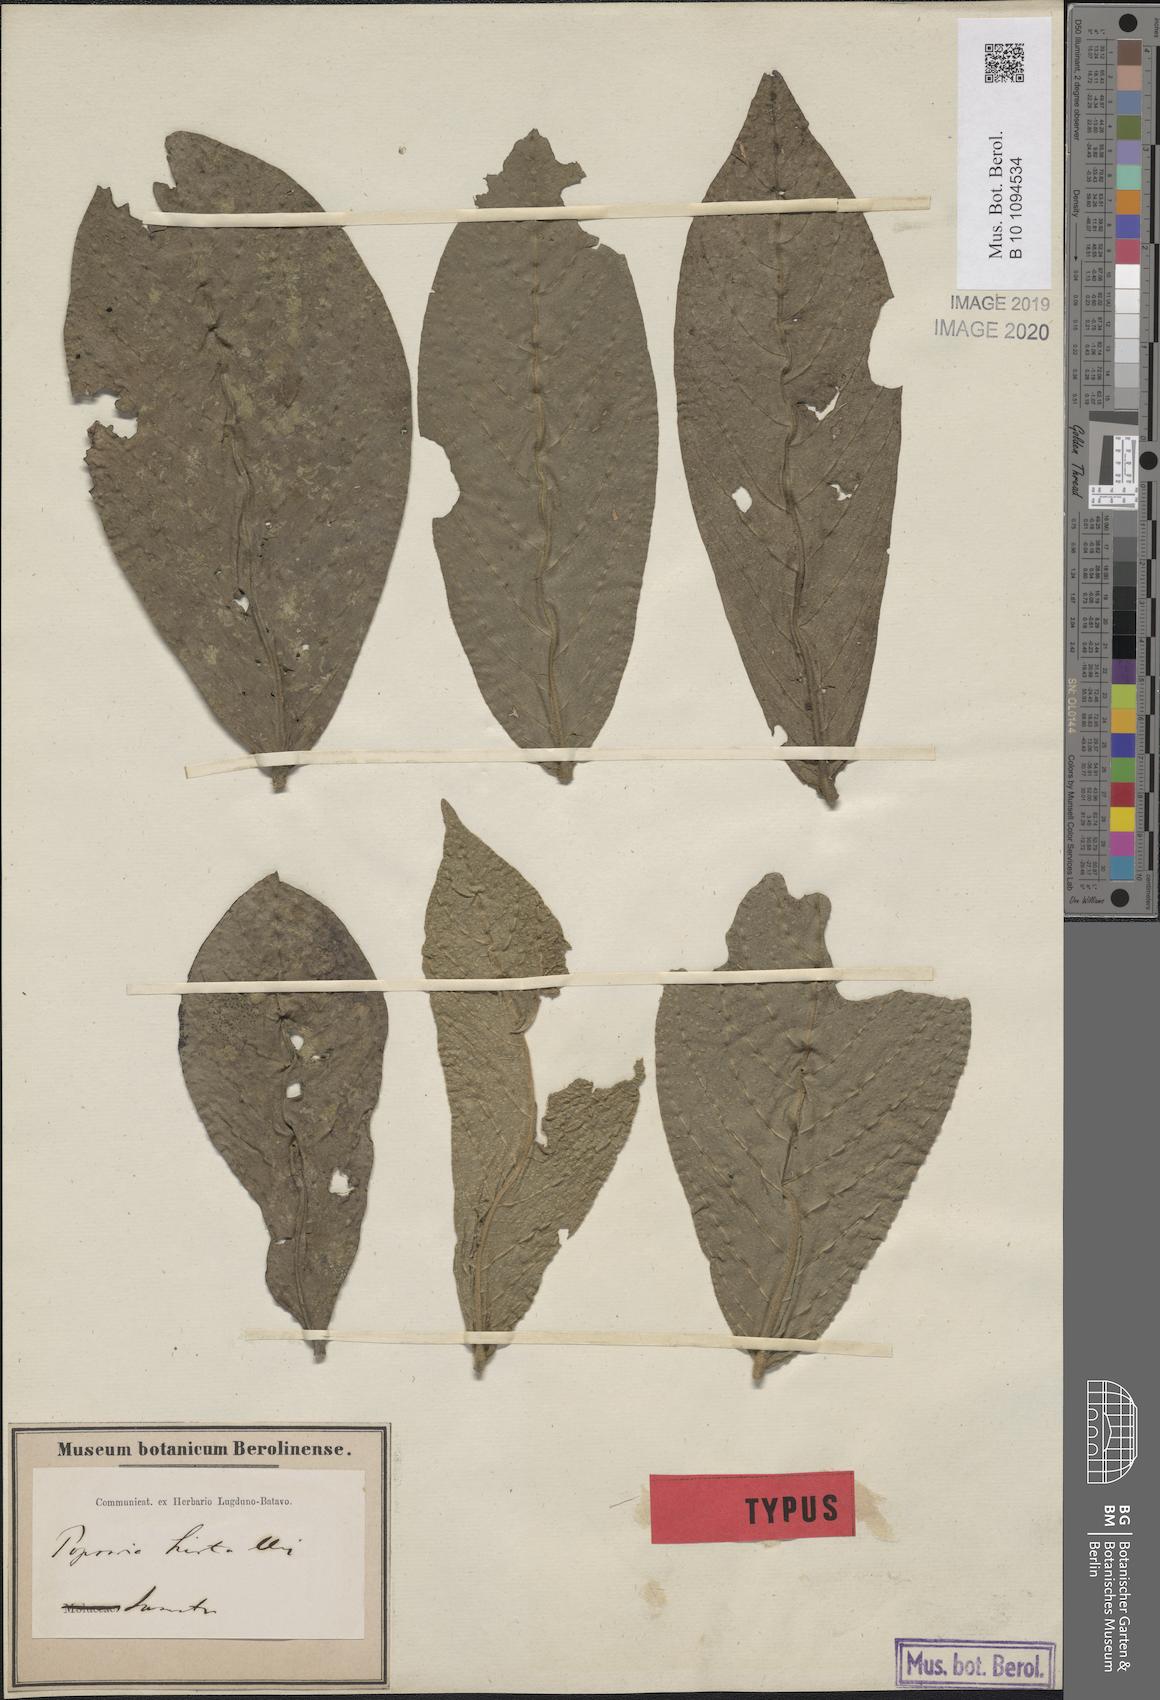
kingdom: Plantae
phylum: Tracheophyta
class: Magnoliopsida
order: Magnoliales
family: Annonaceae
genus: Popowia
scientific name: Popowia hirta
